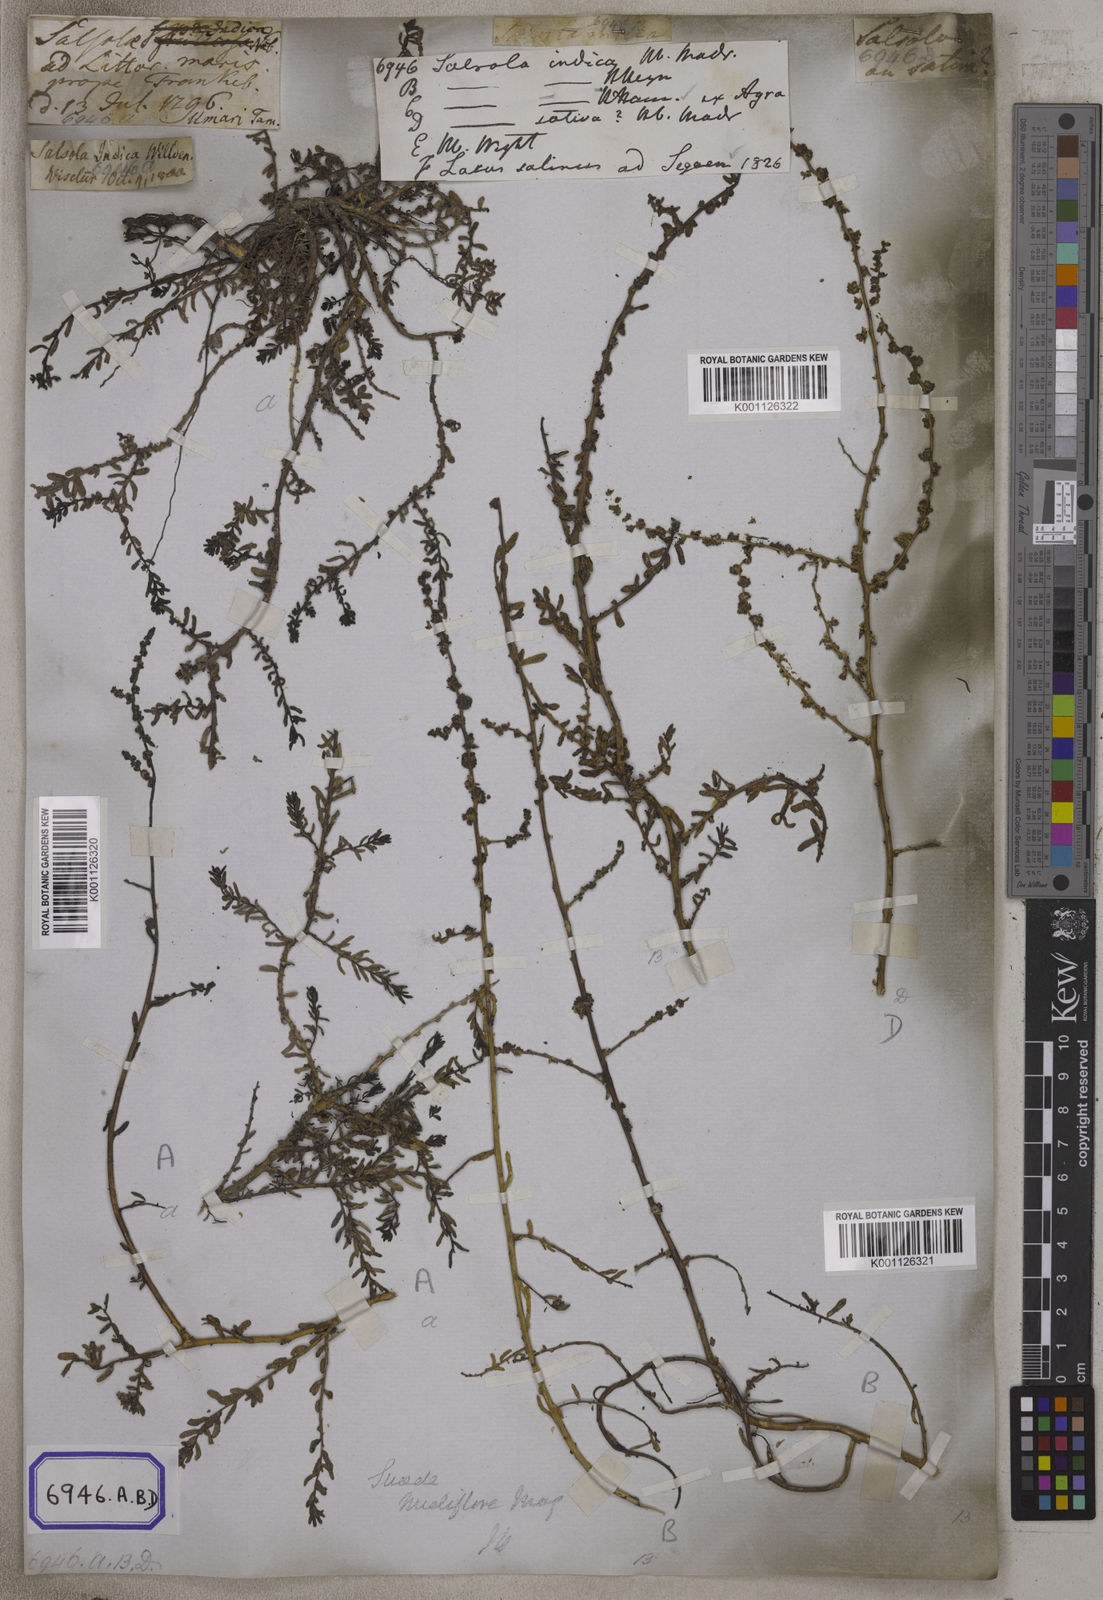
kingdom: Plantae
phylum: Tracheophyta
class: Magnoliopsida
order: Caryophyllales
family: Amaranthaceae
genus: Suaeda
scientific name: Suaeda vermiculata
